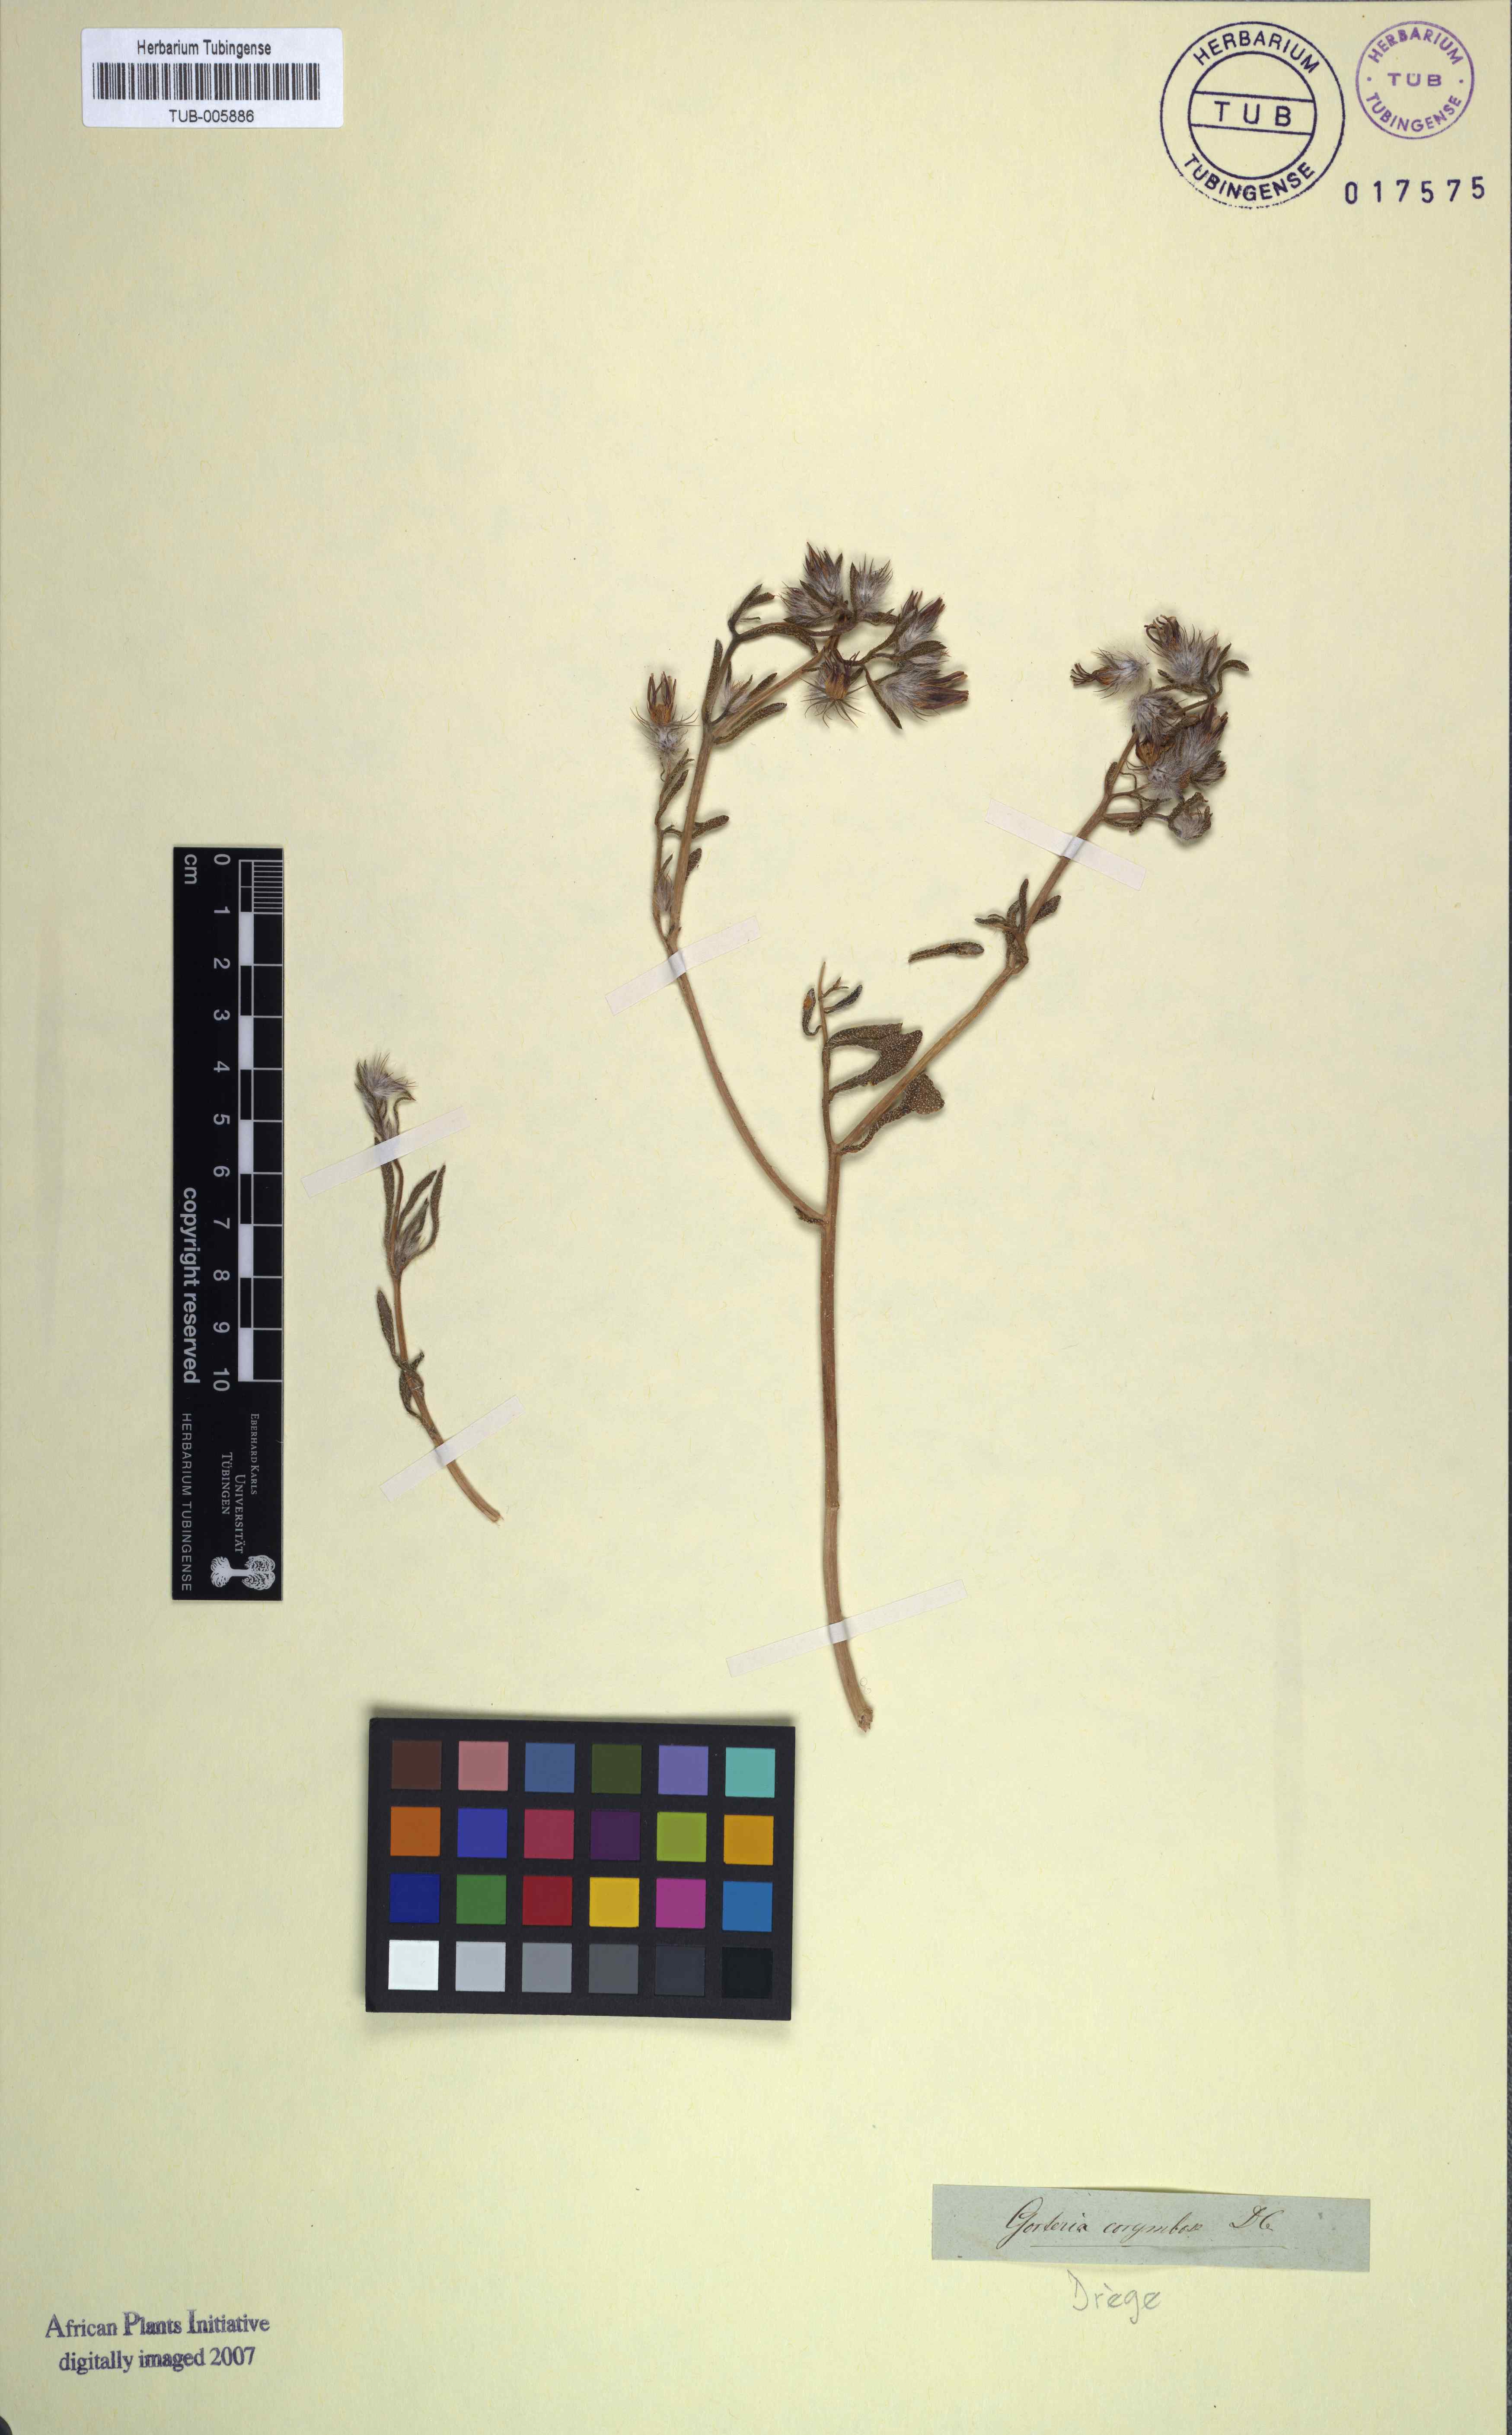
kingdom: Plantae
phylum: Tracheophyta
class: Magnoliopsida
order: Asterales
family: Asteraceae
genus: Gorteria
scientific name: Gorteria corymbosa
